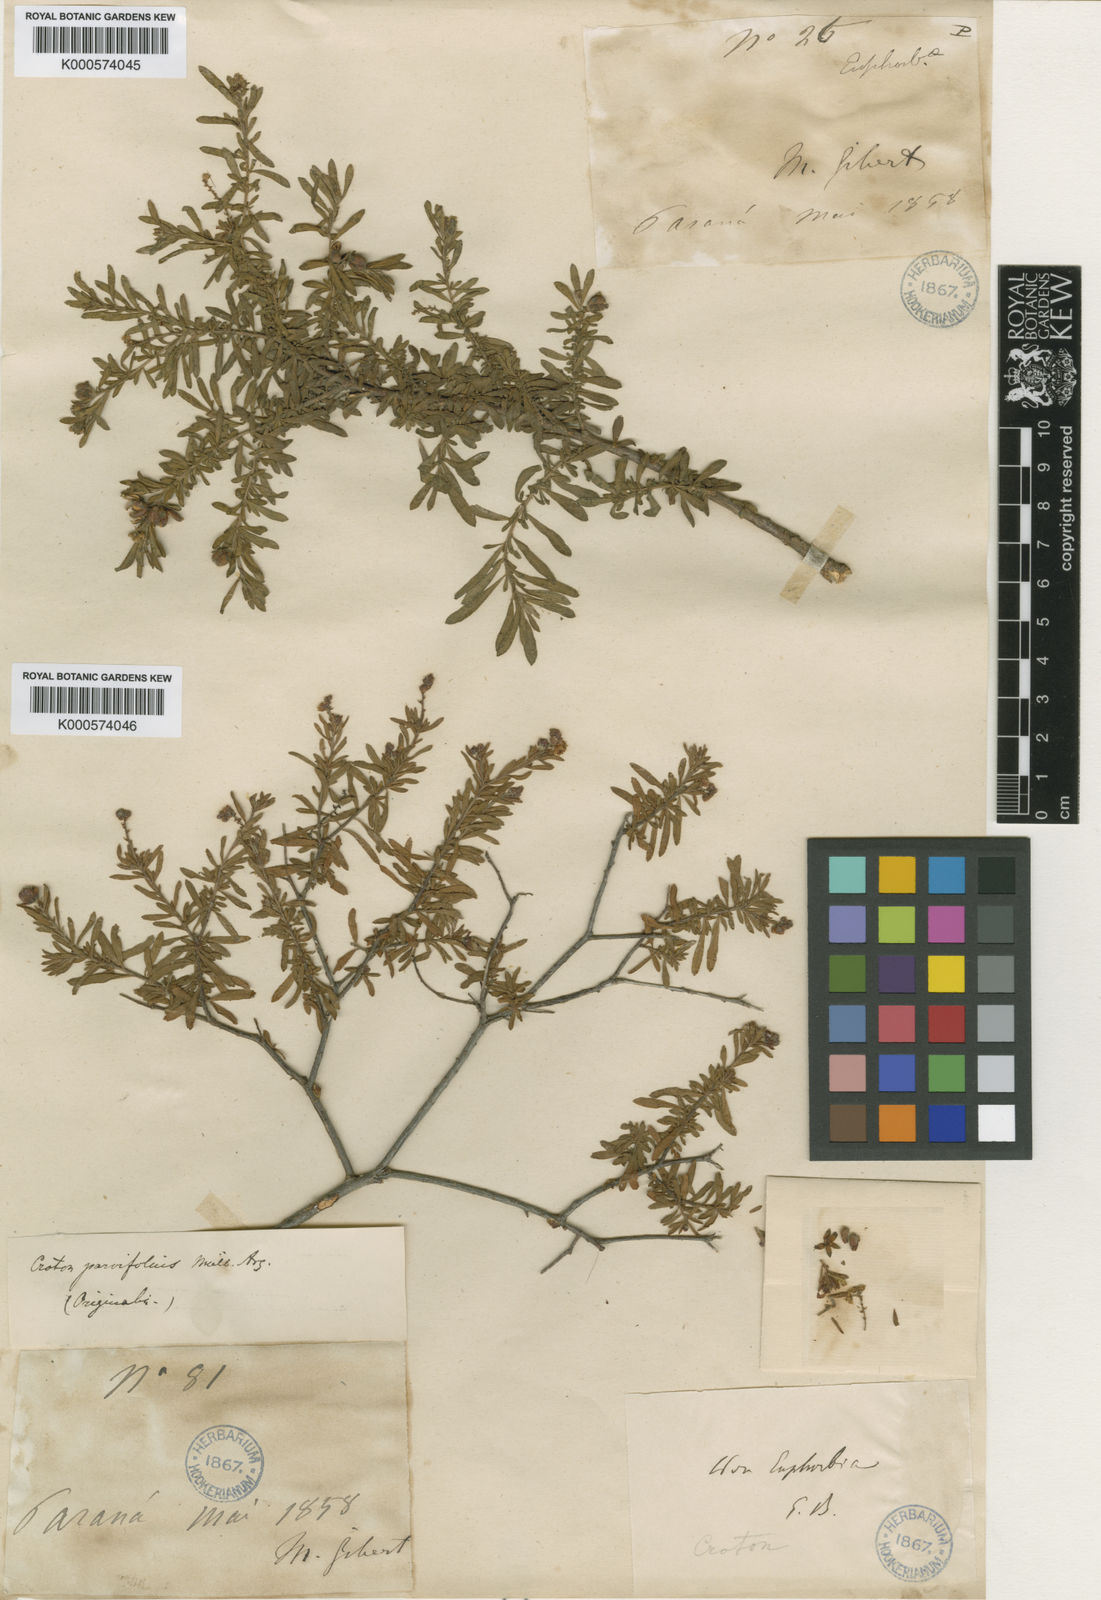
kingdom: Plantae
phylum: Tracheophyta
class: Magnoliopsida
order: Malpighiales
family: Euphorbiaceae
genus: Croton
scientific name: Croton
